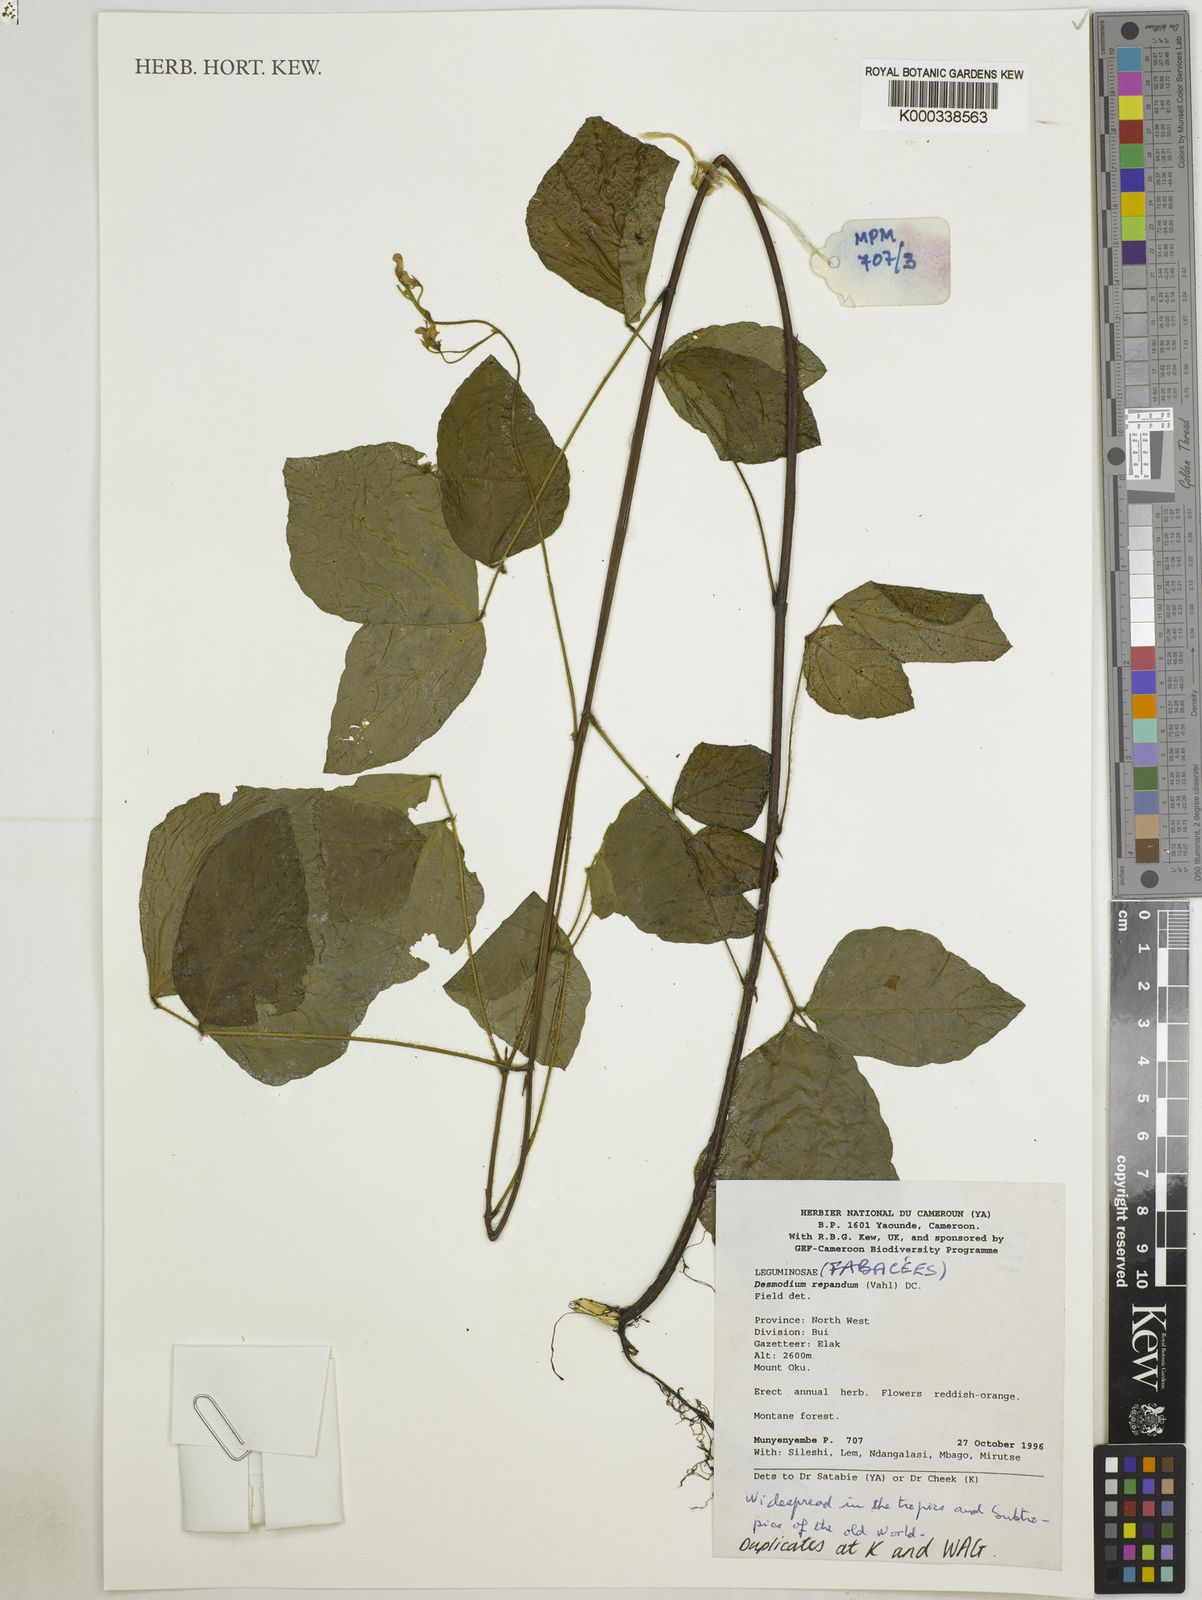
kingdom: Plantae
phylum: Tracheophyta
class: Magnoliopsida
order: Fabales
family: Fabaceae
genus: Desmodium
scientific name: Desmodium
